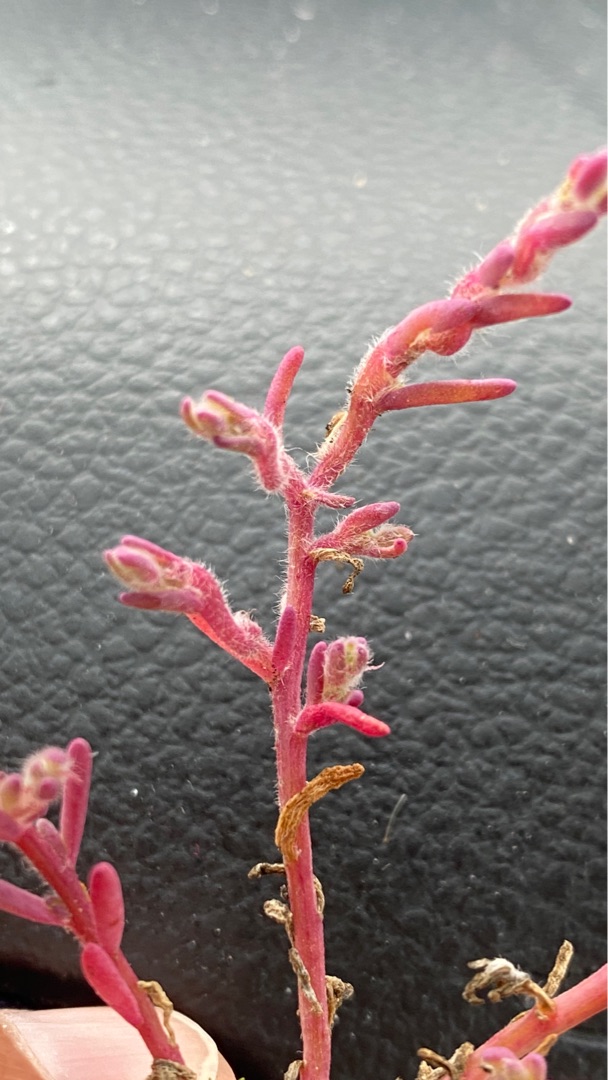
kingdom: Plantae
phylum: Tracheophyta
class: Magnoliopsida
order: Caryophyllales
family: Amaranthaceae
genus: Spirobassia
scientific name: Spirobassia hirsuta
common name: Tangurt
